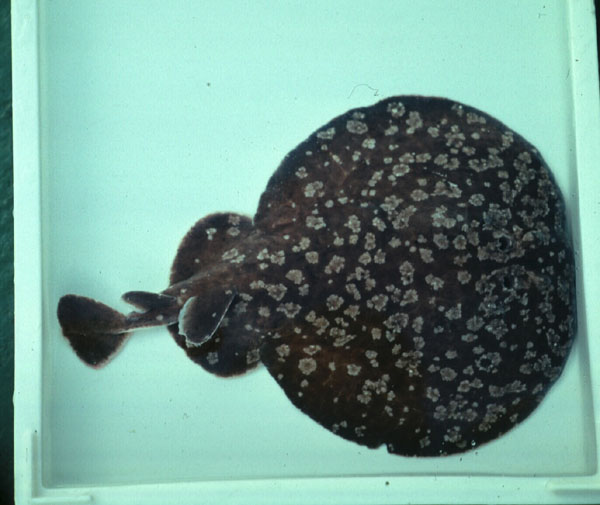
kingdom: Animalia
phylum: Chordata
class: Elasmobranchii
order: Torpediniformes
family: Torpedinidae
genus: Torpedo
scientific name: Torpedo
